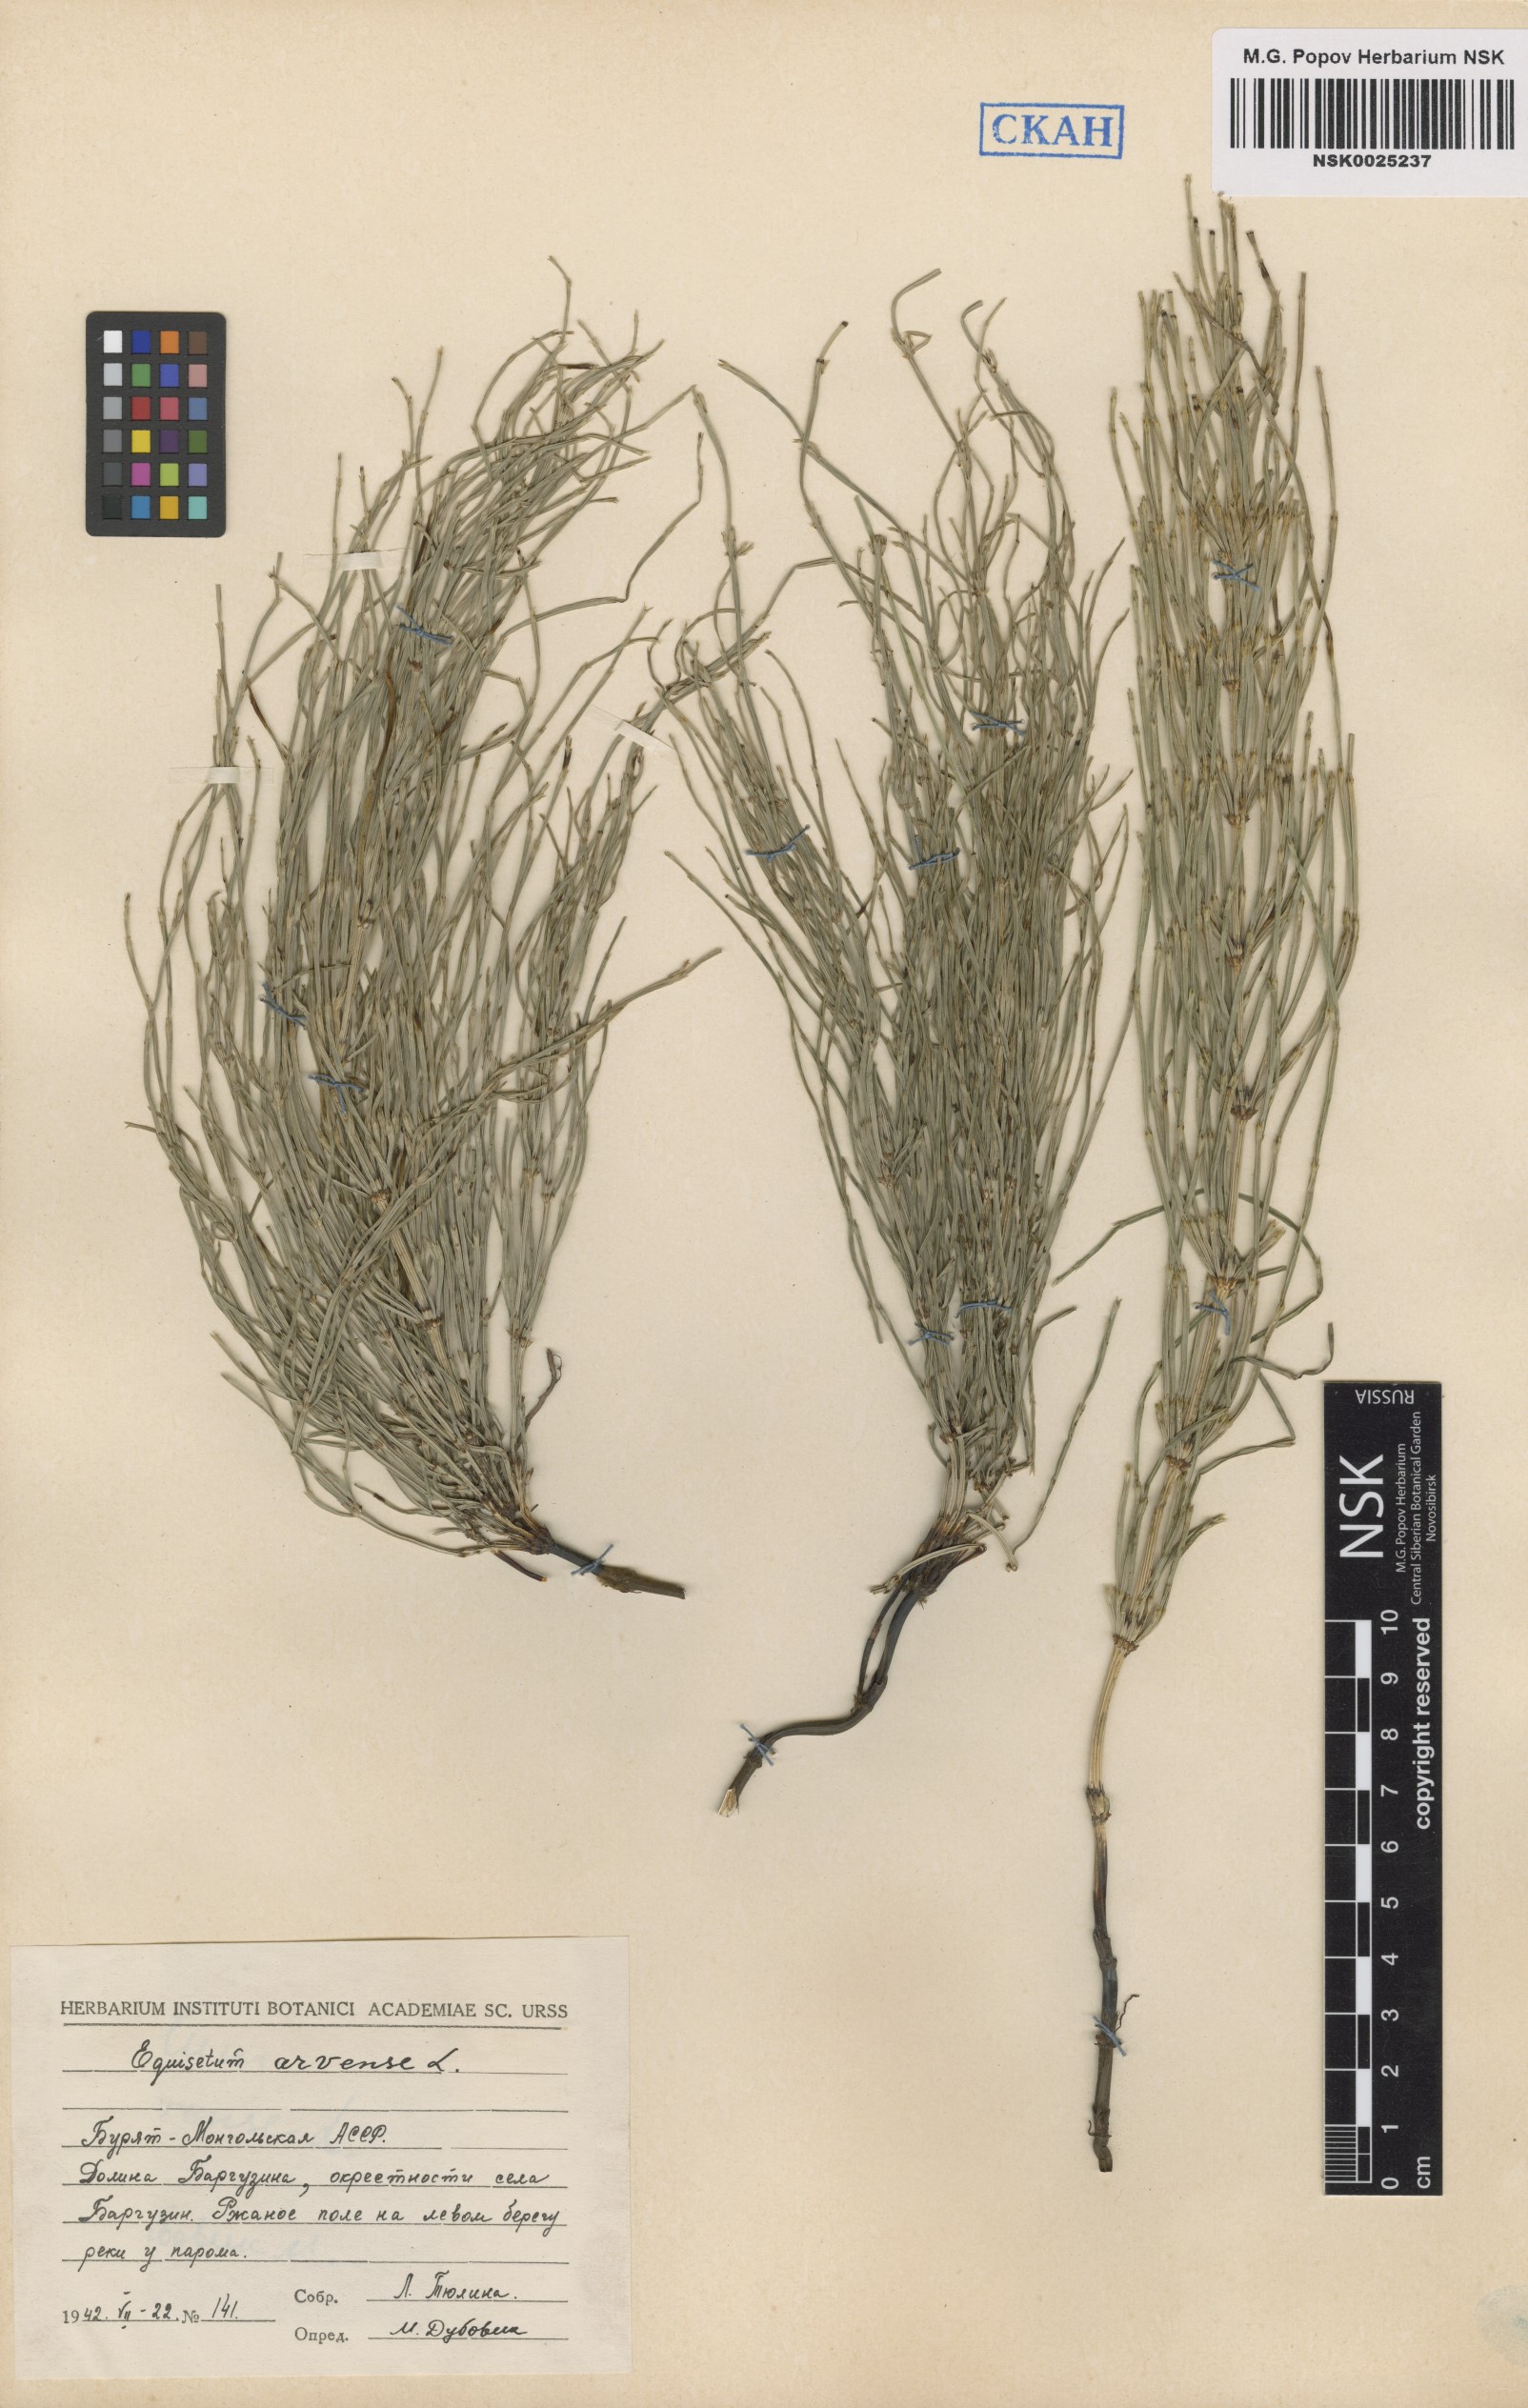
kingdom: Plantae
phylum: Tracheophyta
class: Polypodiopsida
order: Equisetales
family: Equisetaceae
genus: Equisetum
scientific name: Equisetum arvense
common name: Field horsetail
